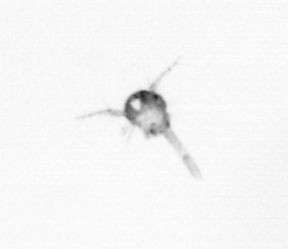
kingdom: Animalia
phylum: Arthropoda
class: Copepoda
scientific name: Copepoda
